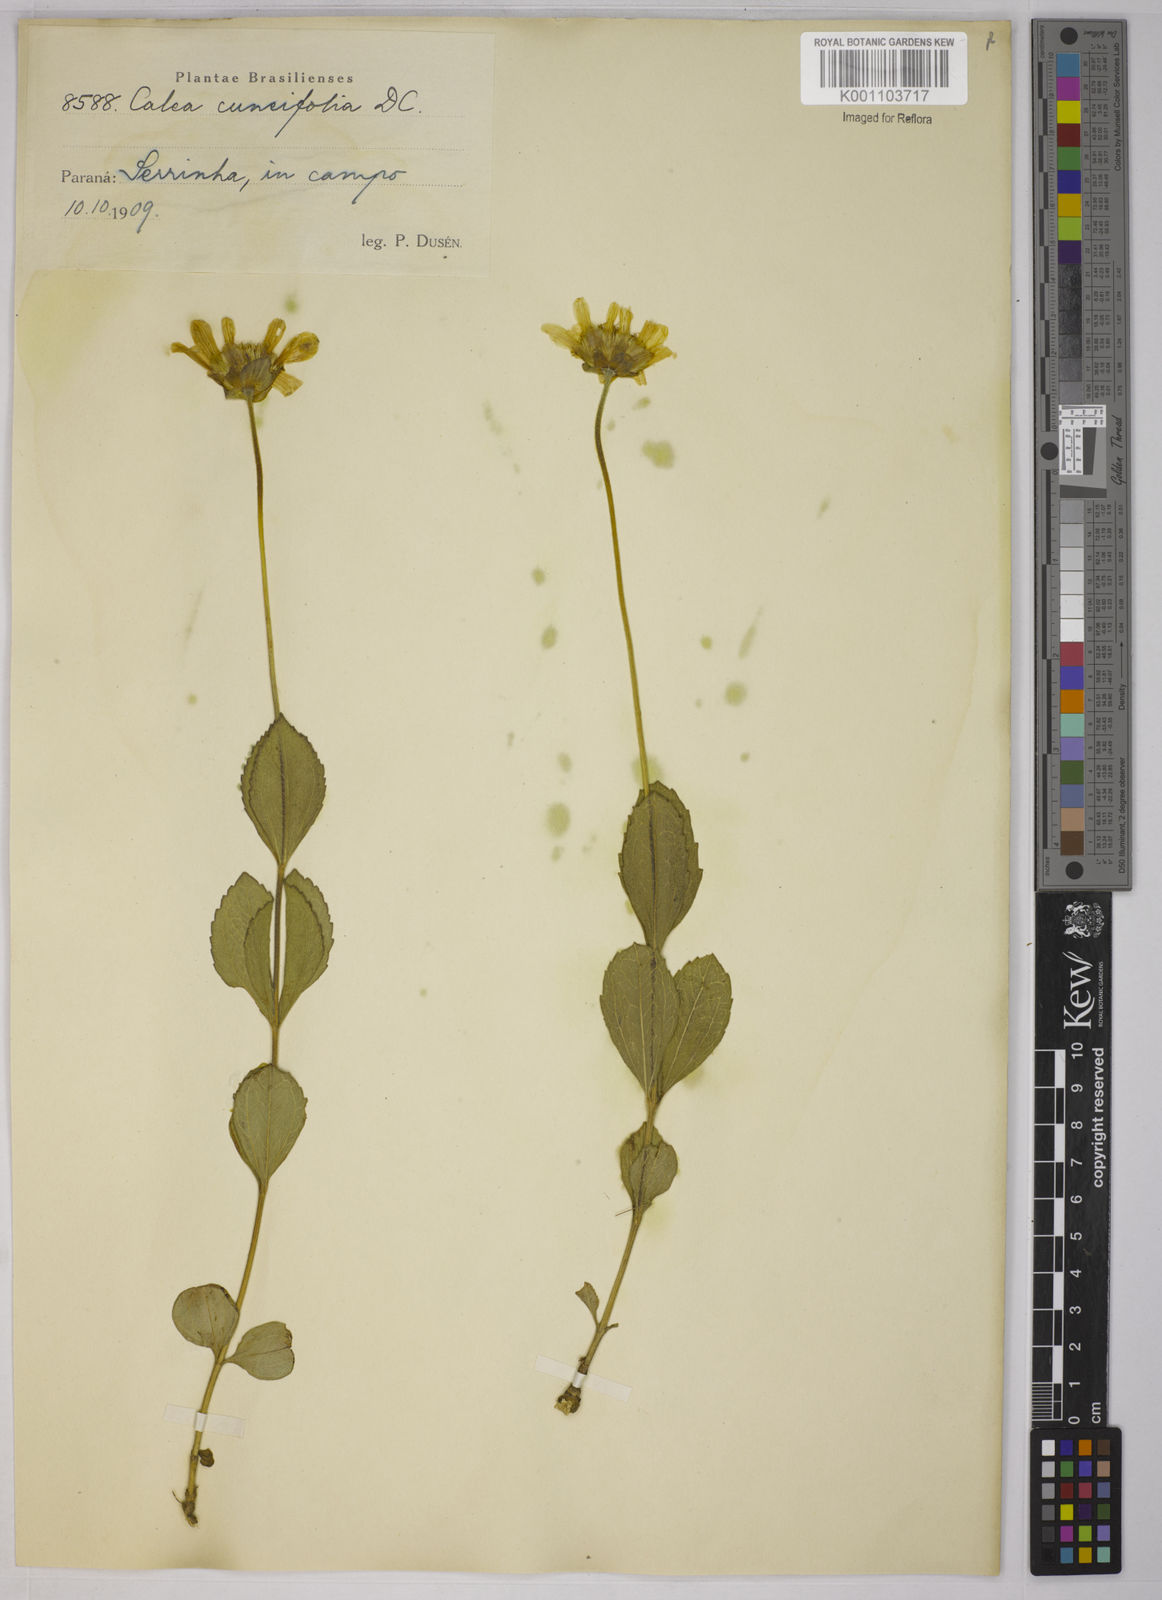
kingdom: Plantae
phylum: Tracheophyta
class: Magnoliopsida
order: Asterales
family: Asteraceae
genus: Calea
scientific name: Calea cuneifolia
